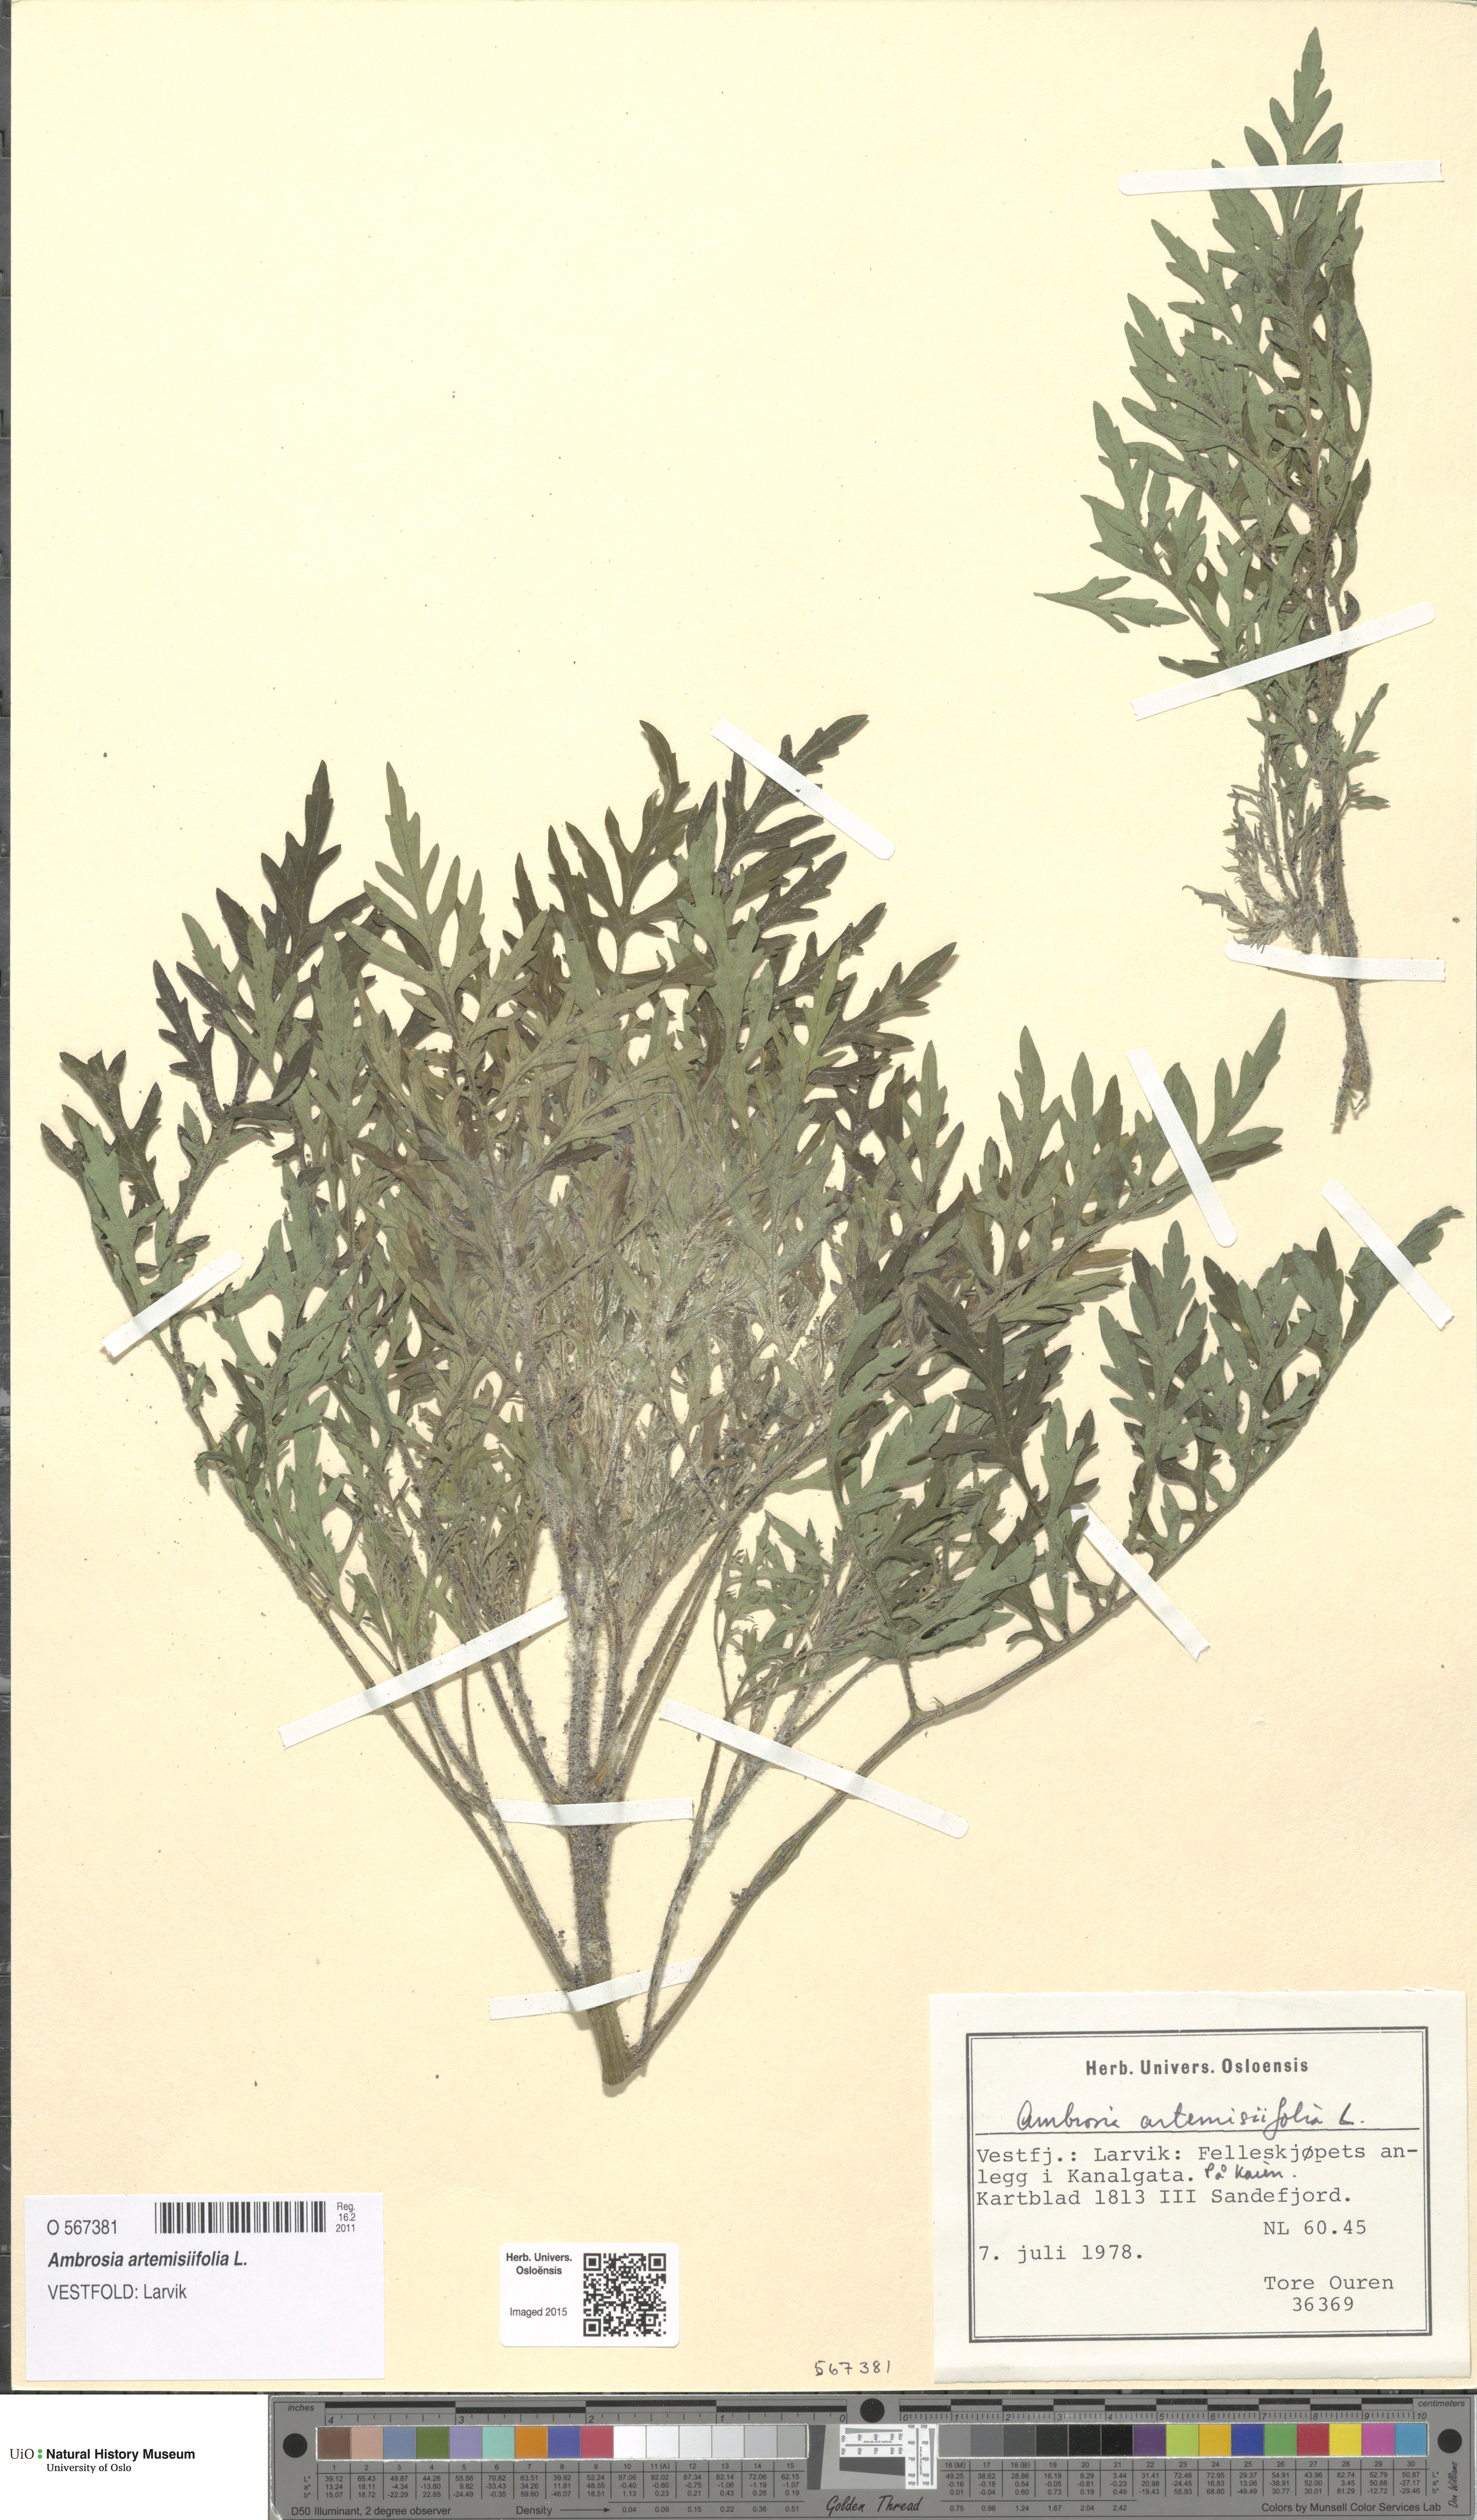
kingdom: Plantae
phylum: Tracheophyta
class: Magnoliopsida
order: Asterales
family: Asteraceae
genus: Ambrosia
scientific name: Ambrosia artemisiifolia
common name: Annual ragweed
